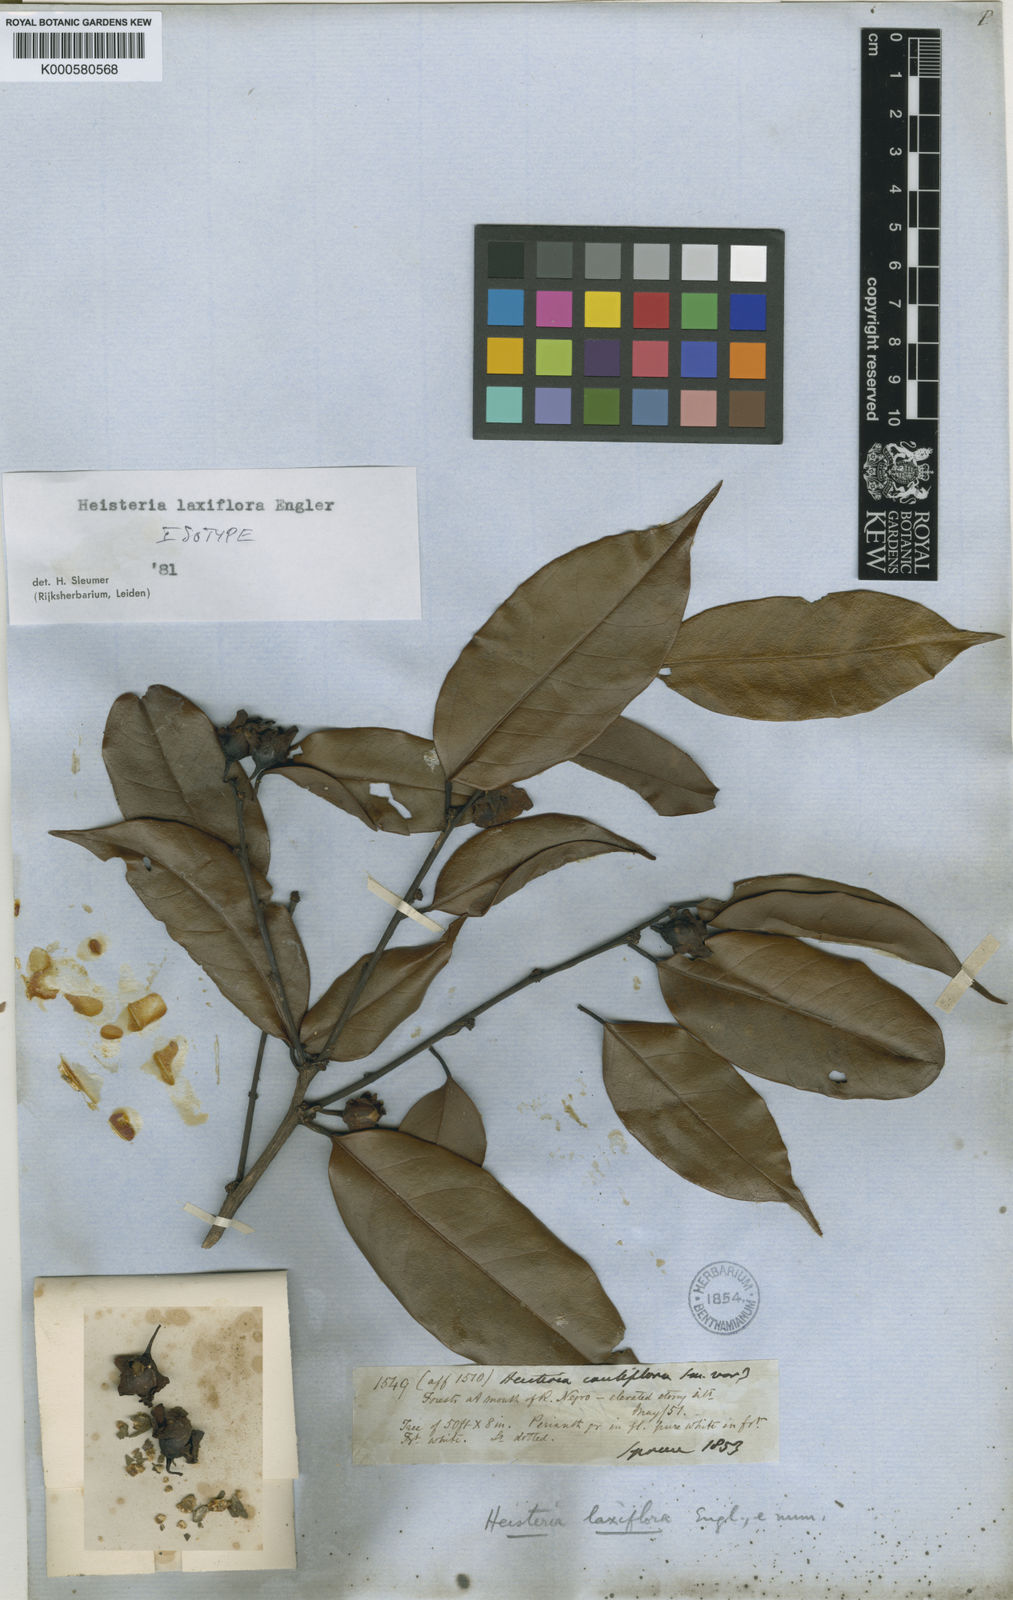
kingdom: Plantae
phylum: Tracheophyta
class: Magnoliopsida
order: Santalales
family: Erythropalaceae
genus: Heisteria
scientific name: Heisteria laxiflora
